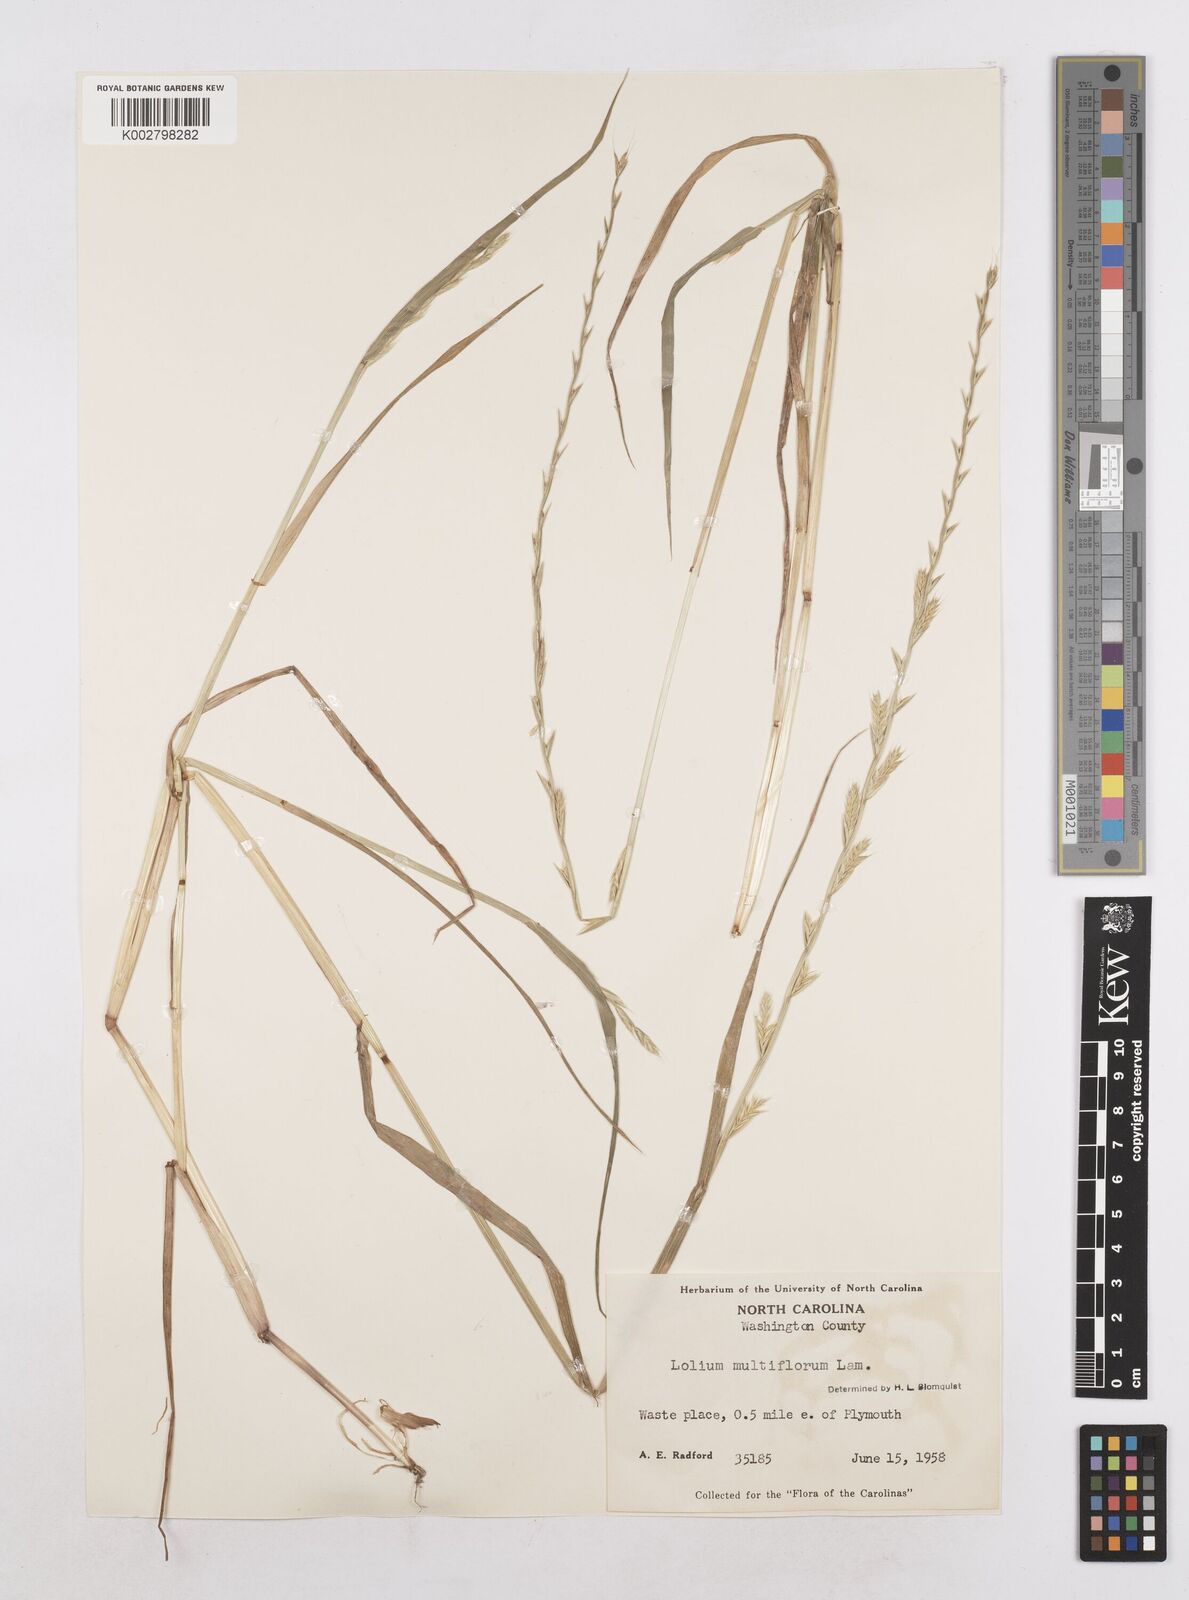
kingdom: Plantae
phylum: Tracheophyta
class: Liliopsida
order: Poales
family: Poaceae
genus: Lolium
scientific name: Lolium multiflorum
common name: Annual ryegrass
